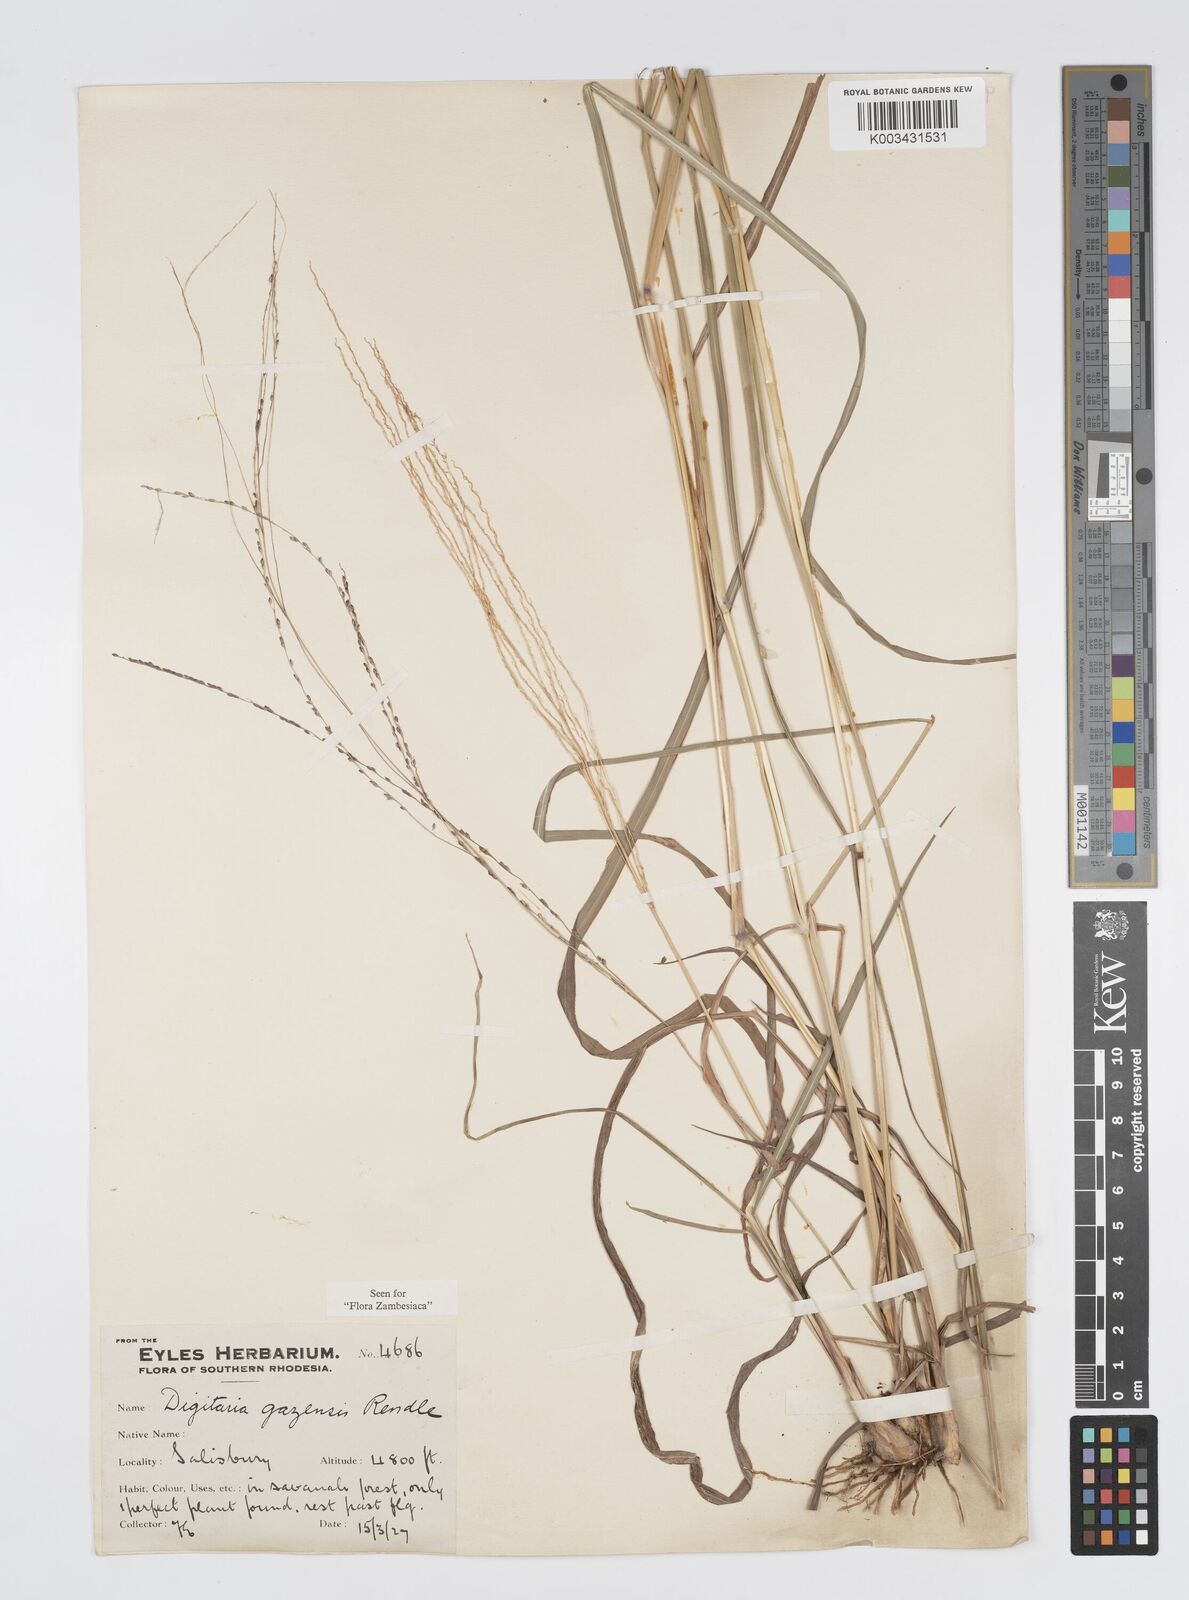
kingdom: Plantae
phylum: Tracheophyta
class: Liliopsida
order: Poales
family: Poaceae
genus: Digitaria
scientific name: Digitaria gazensis
